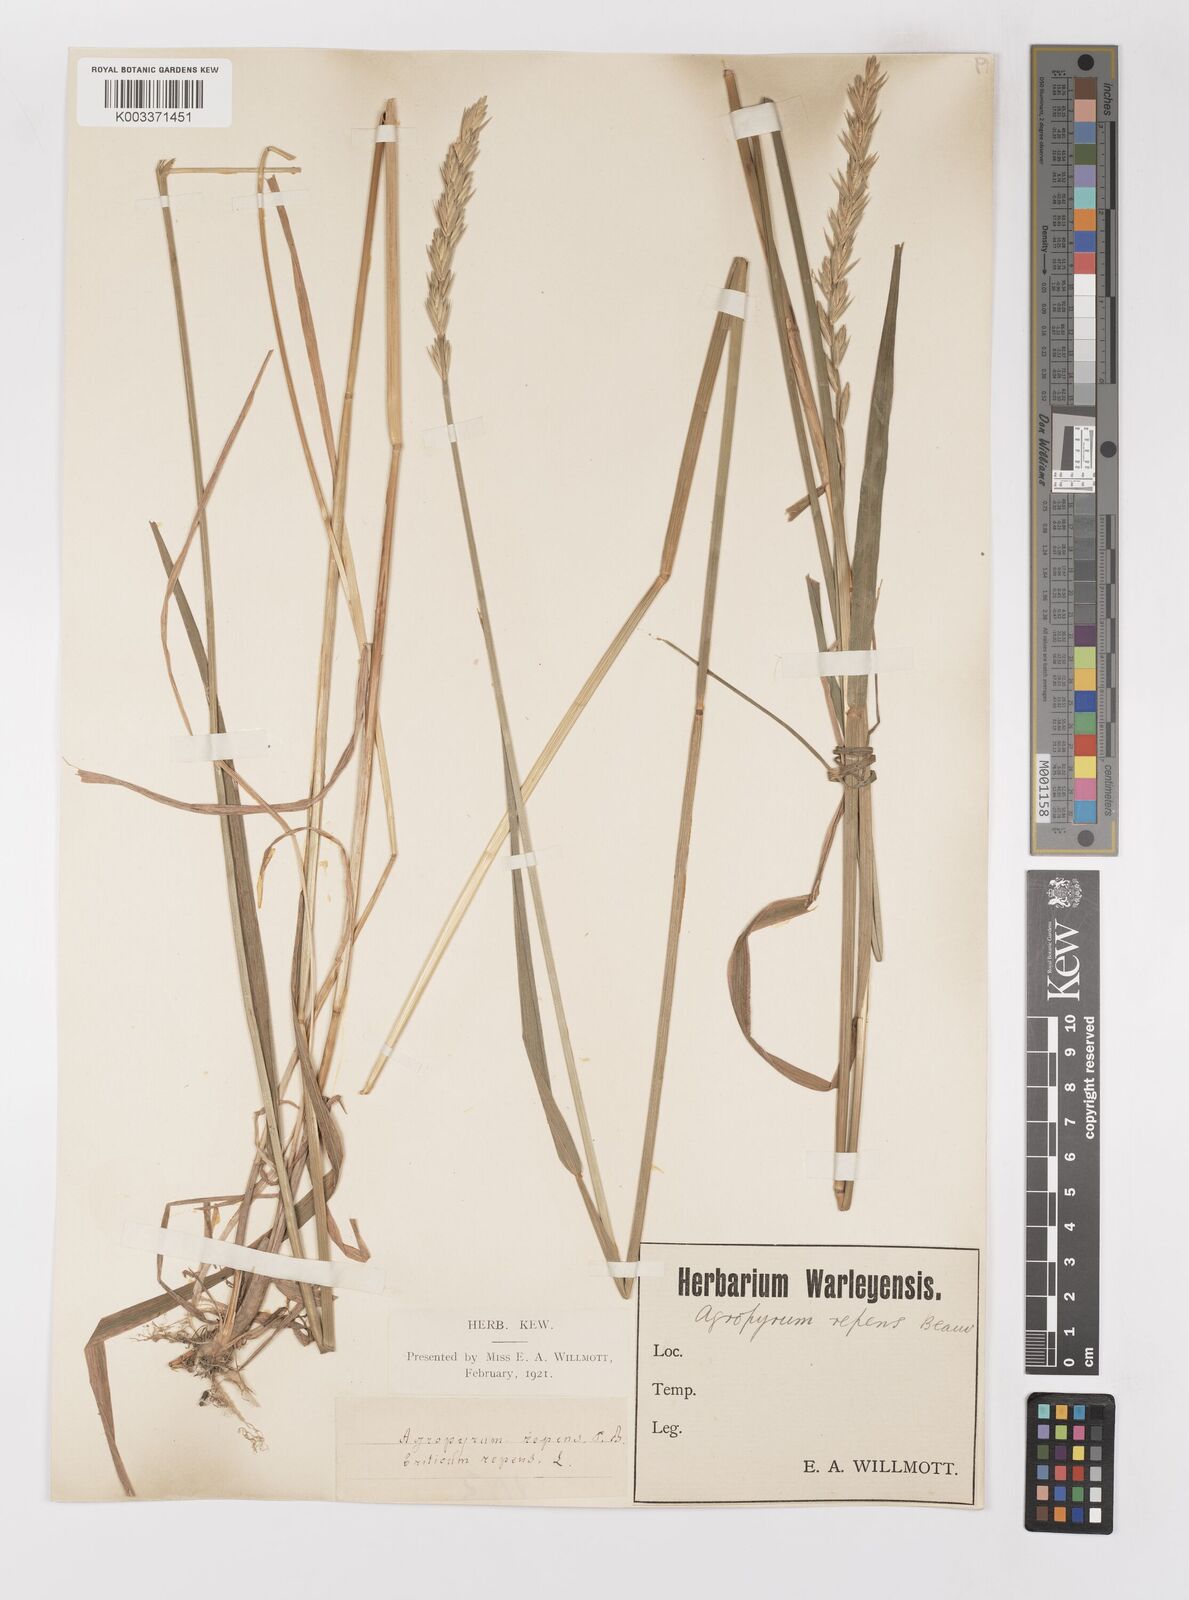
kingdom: Plantae
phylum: Tracheophyta
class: Liliopsida
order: Poales
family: Poaceae
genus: Elymus
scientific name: Elymus repens
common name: Quackgrass
